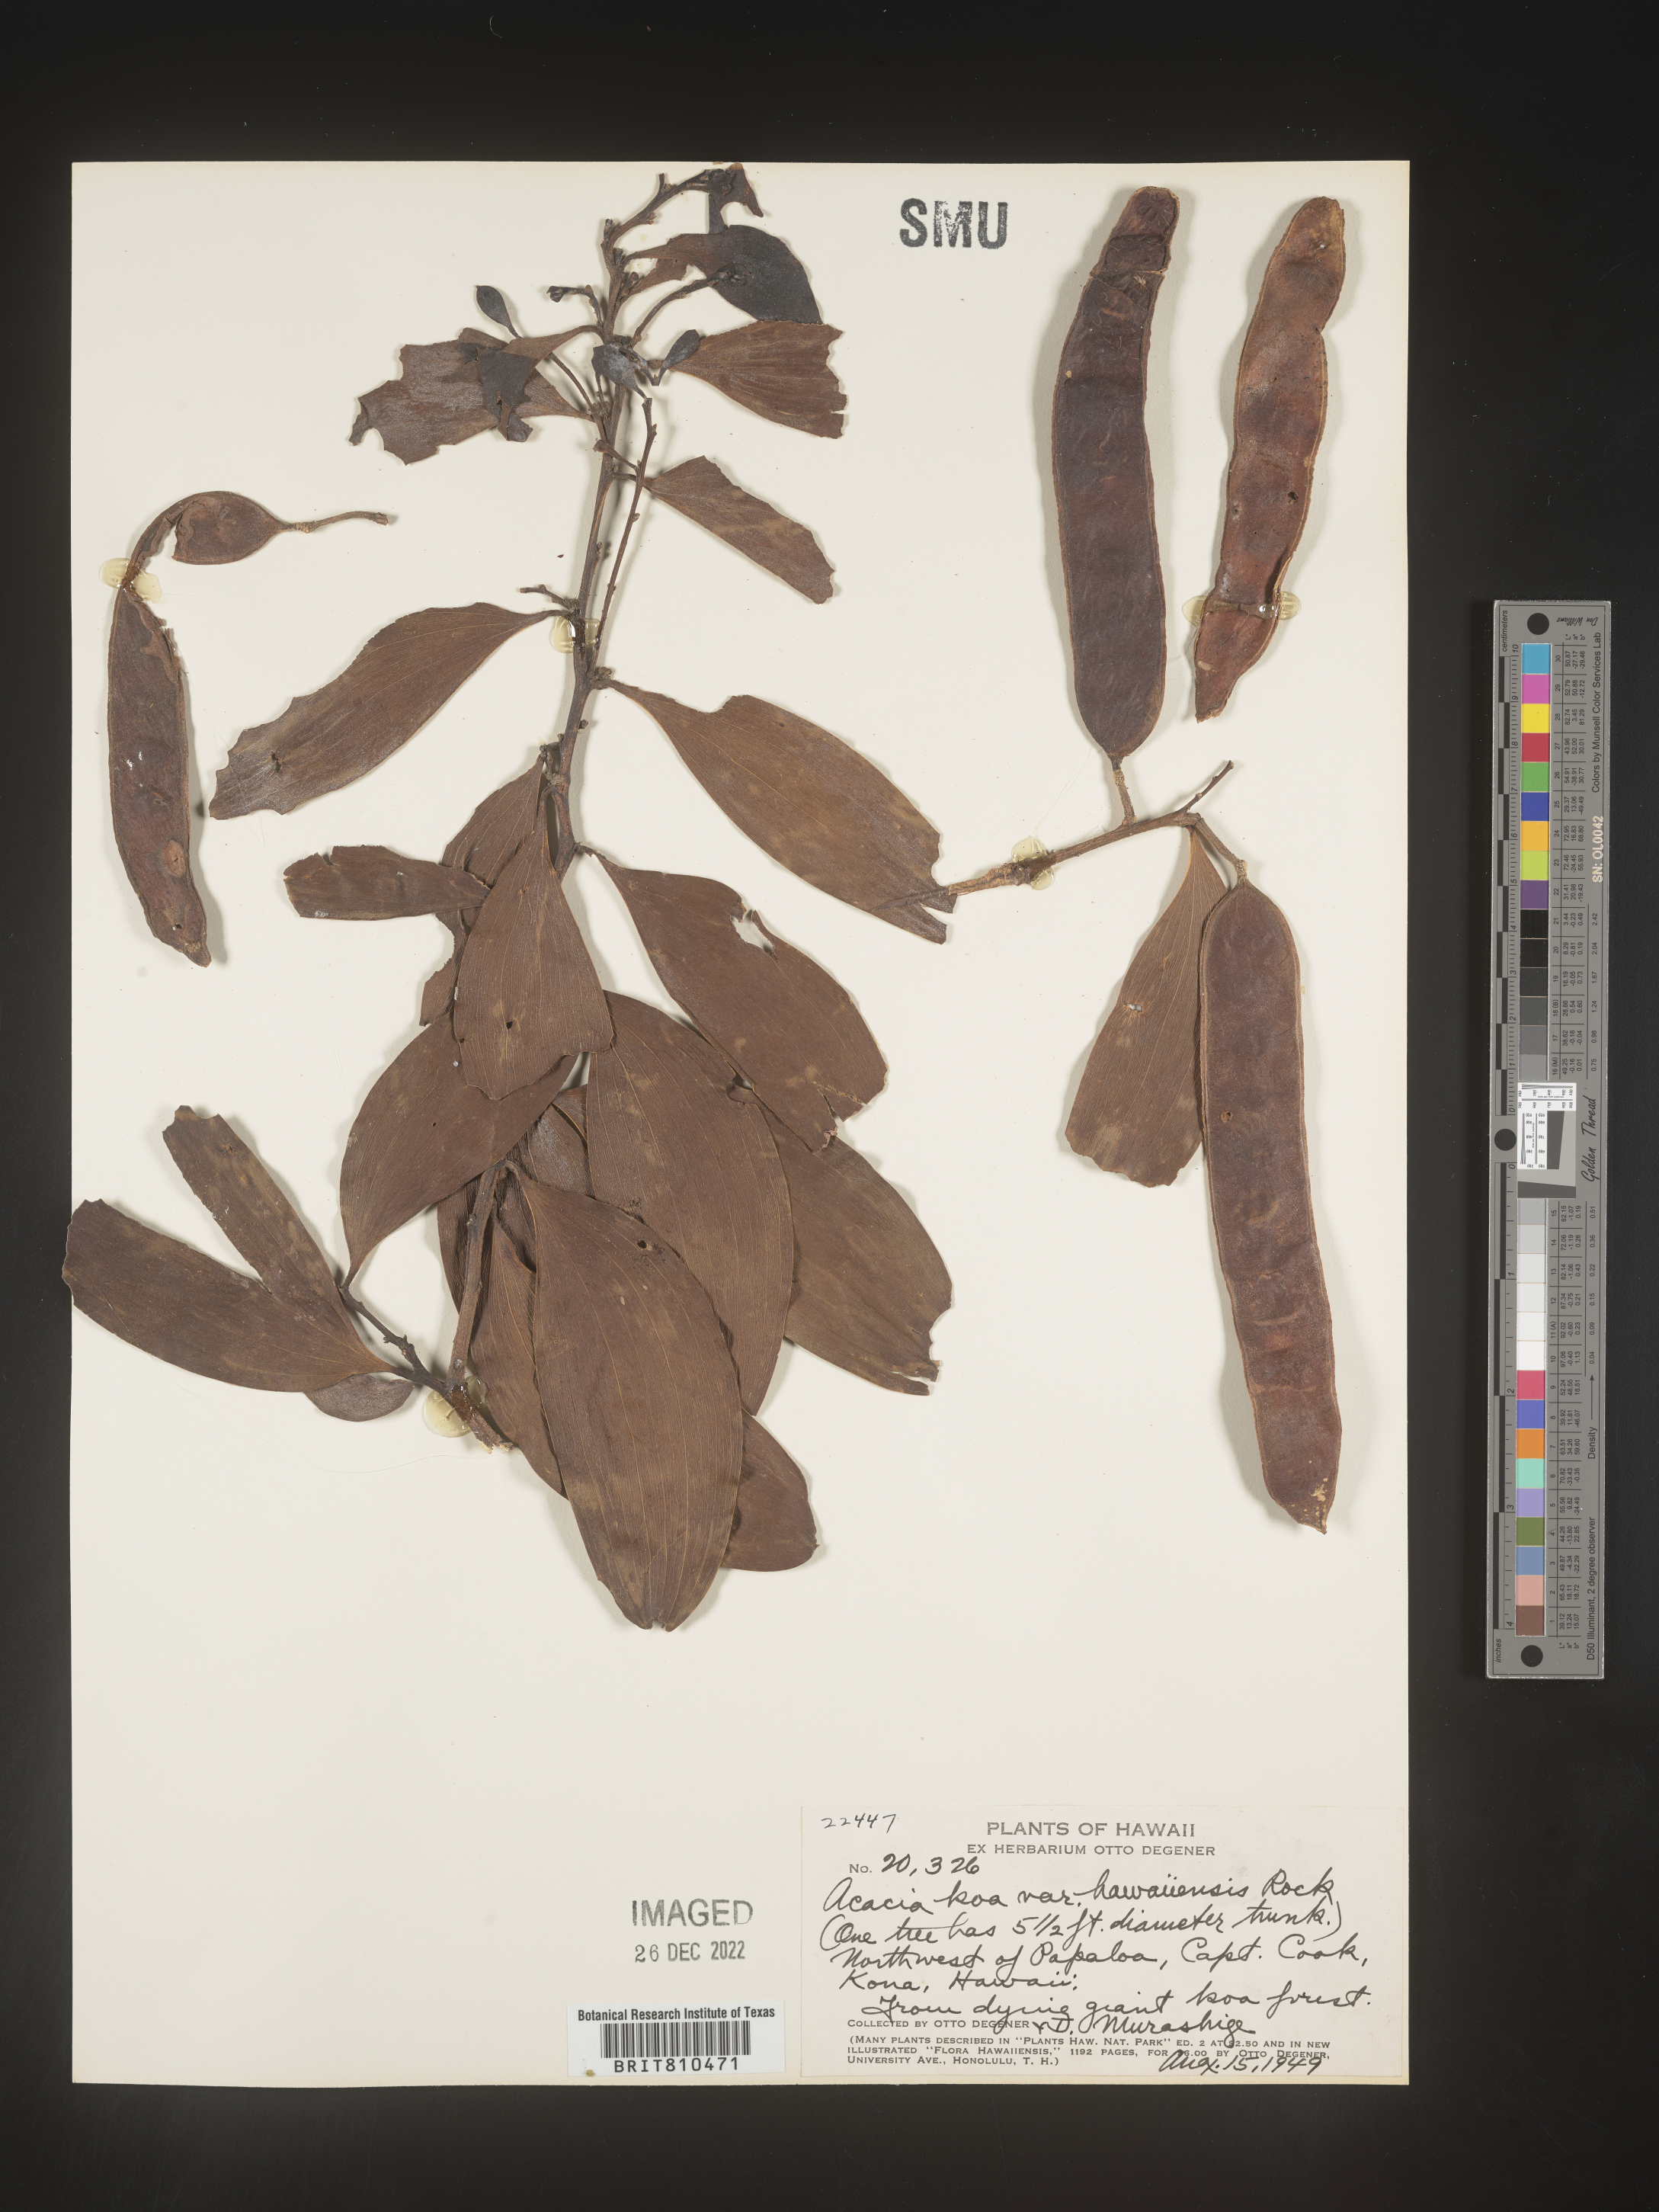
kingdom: Plantae
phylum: Tracheophyta
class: Magnoliopsida
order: Fabales
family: Fabaceae
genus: Acacia
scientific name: Acacia
